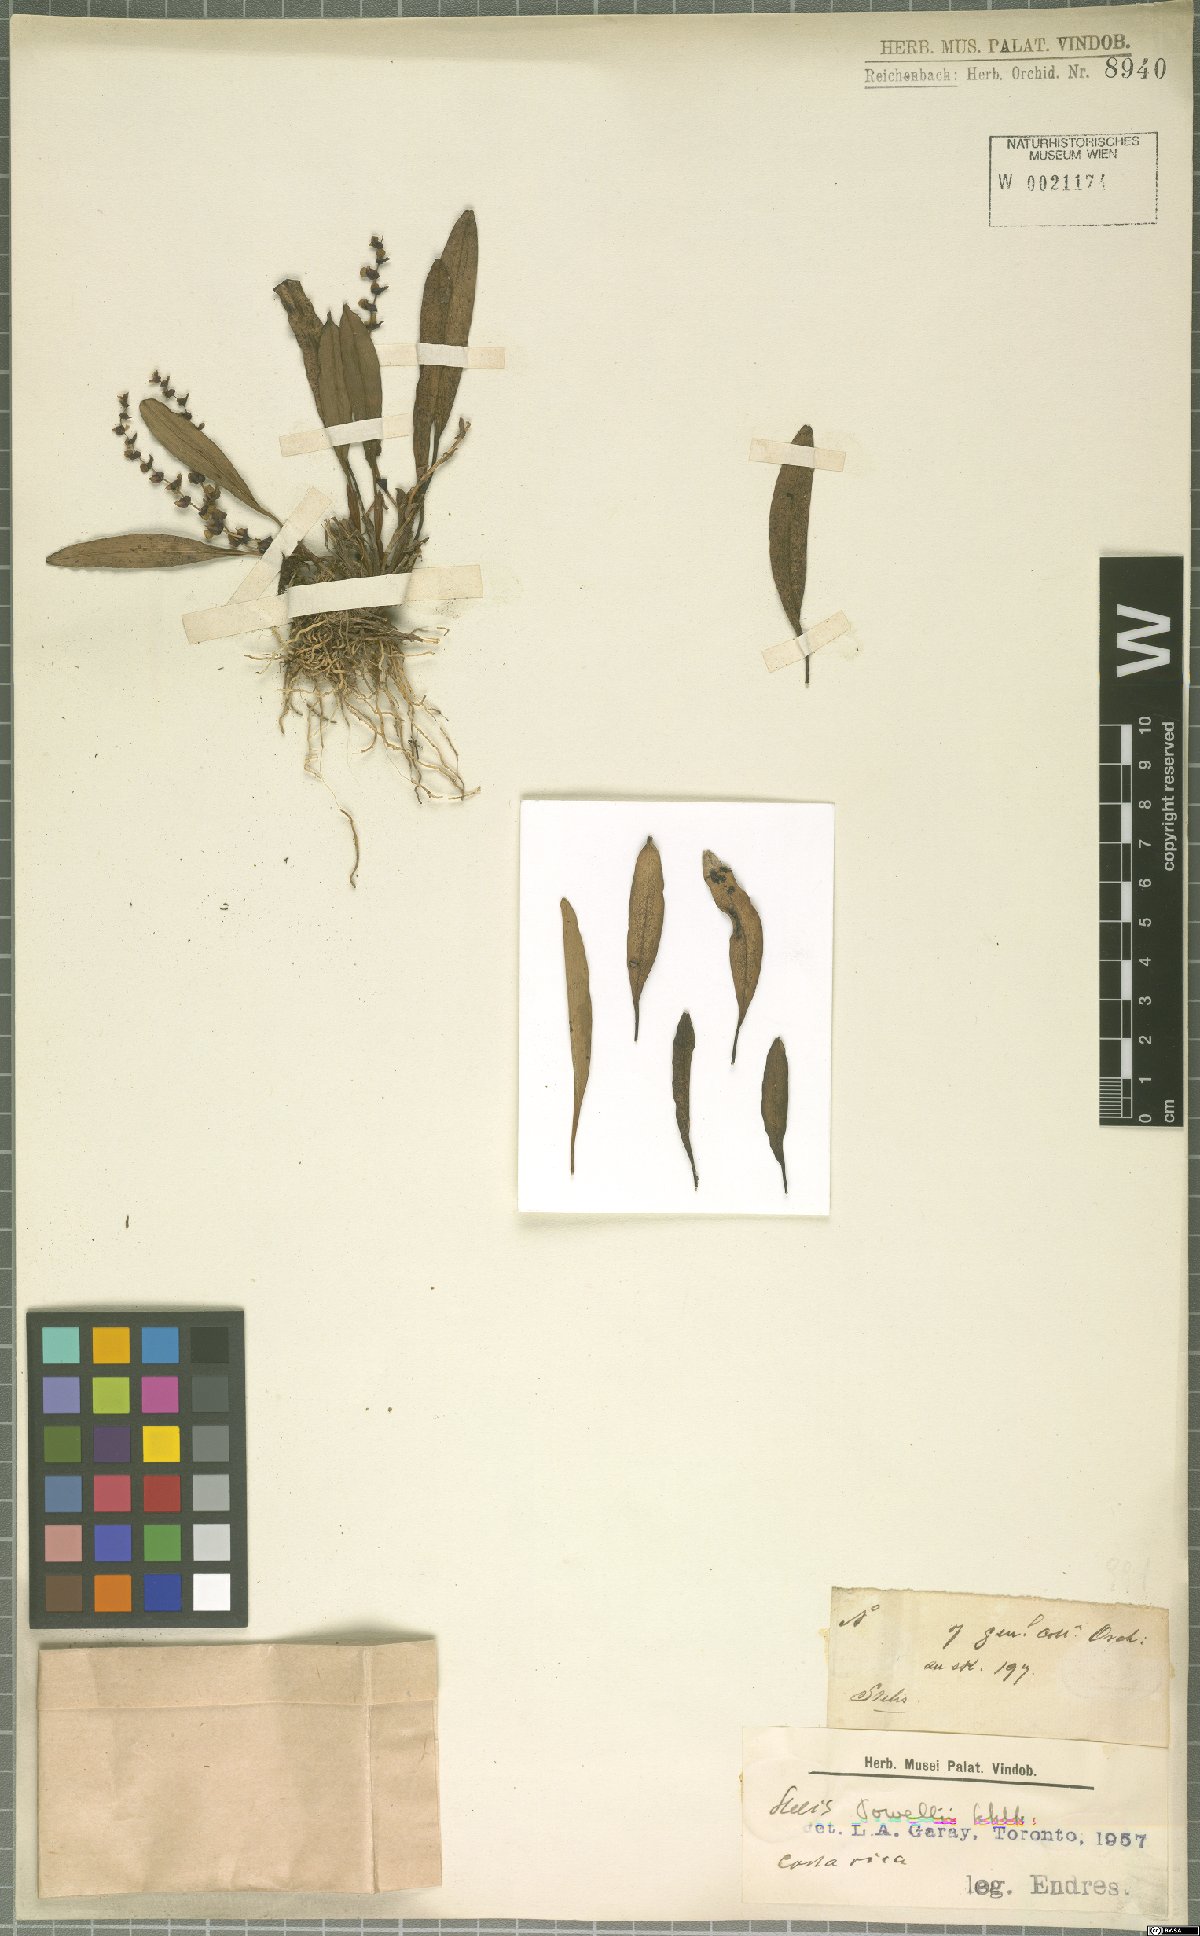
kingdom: Plantae
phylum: Tracheophyta
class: Liliopsida
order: Asparagales
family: Orchidaceae
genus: Stelis
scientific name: Stelis powellii
